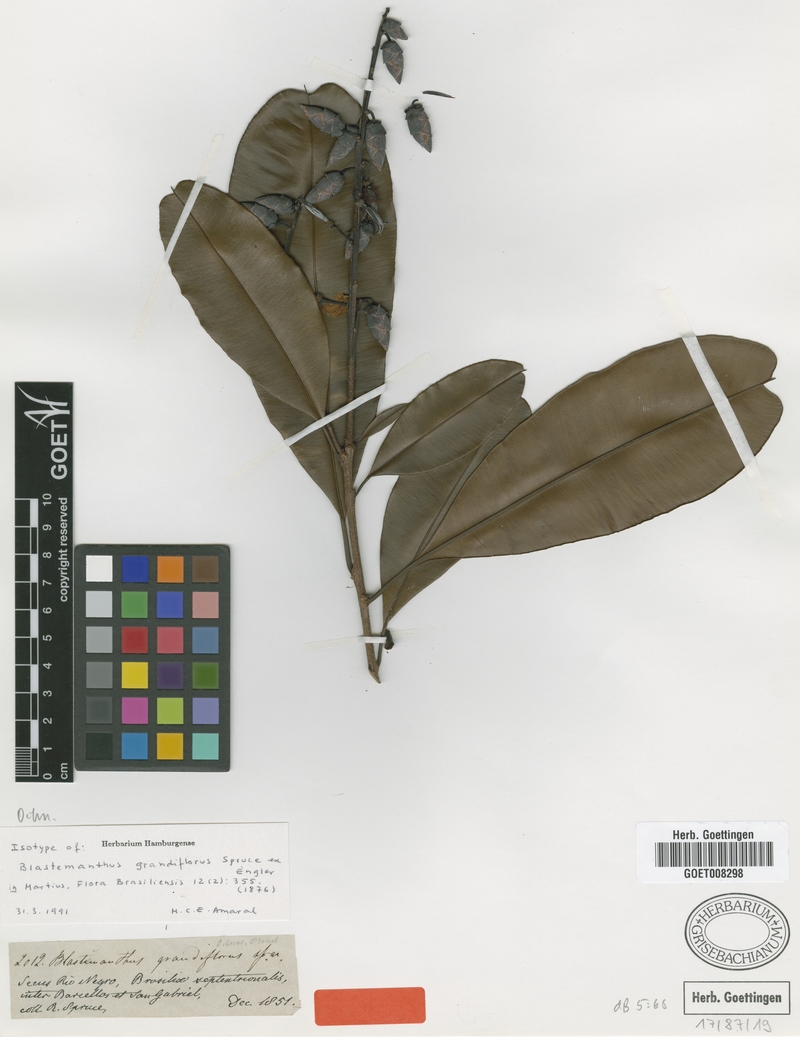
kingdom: Plantae
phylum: Tracheophyta
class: Magnoliopsida
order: Malpighiales
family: Ochnaceae
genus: Blastemanthus
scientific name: Blastemanthus grandiflorus
